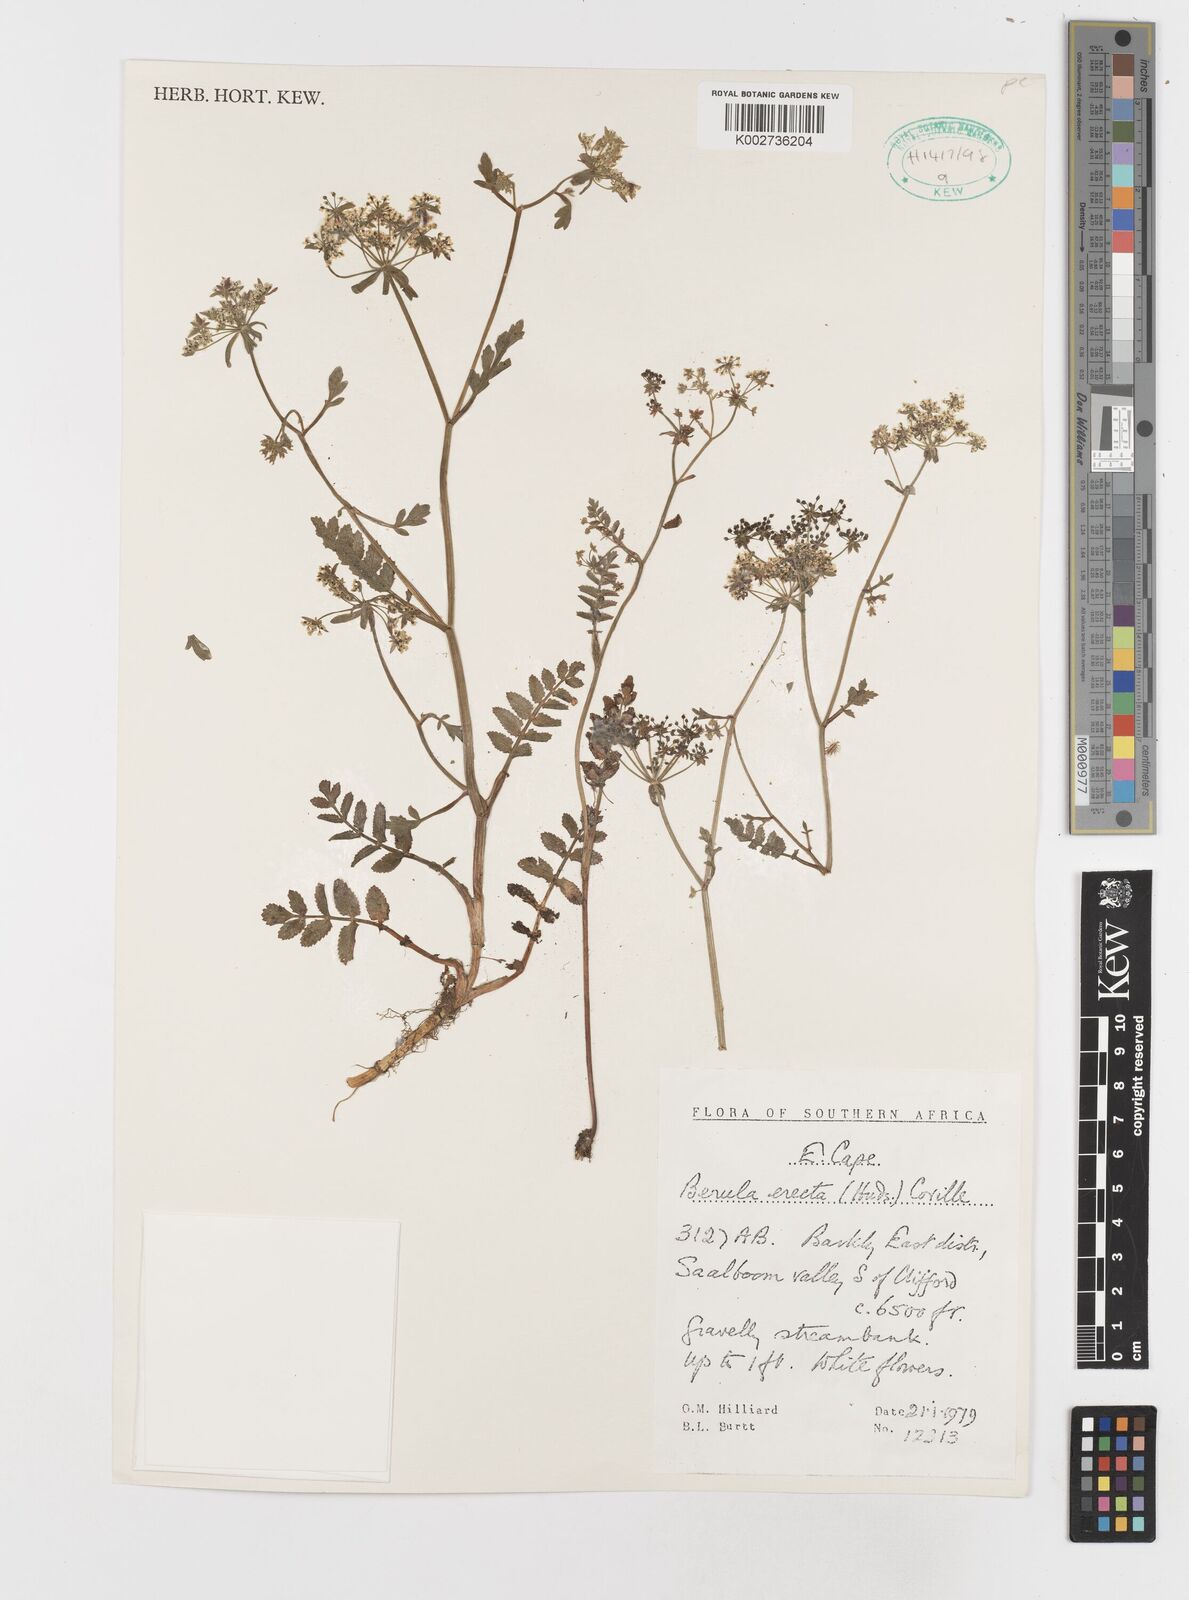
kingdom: Plantae
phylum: Tracheophyta
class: Magnoliopsida
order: Apiales
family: Apiaceae
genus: Berula
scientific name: Berula erecta
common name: Lesser water-parsnip
